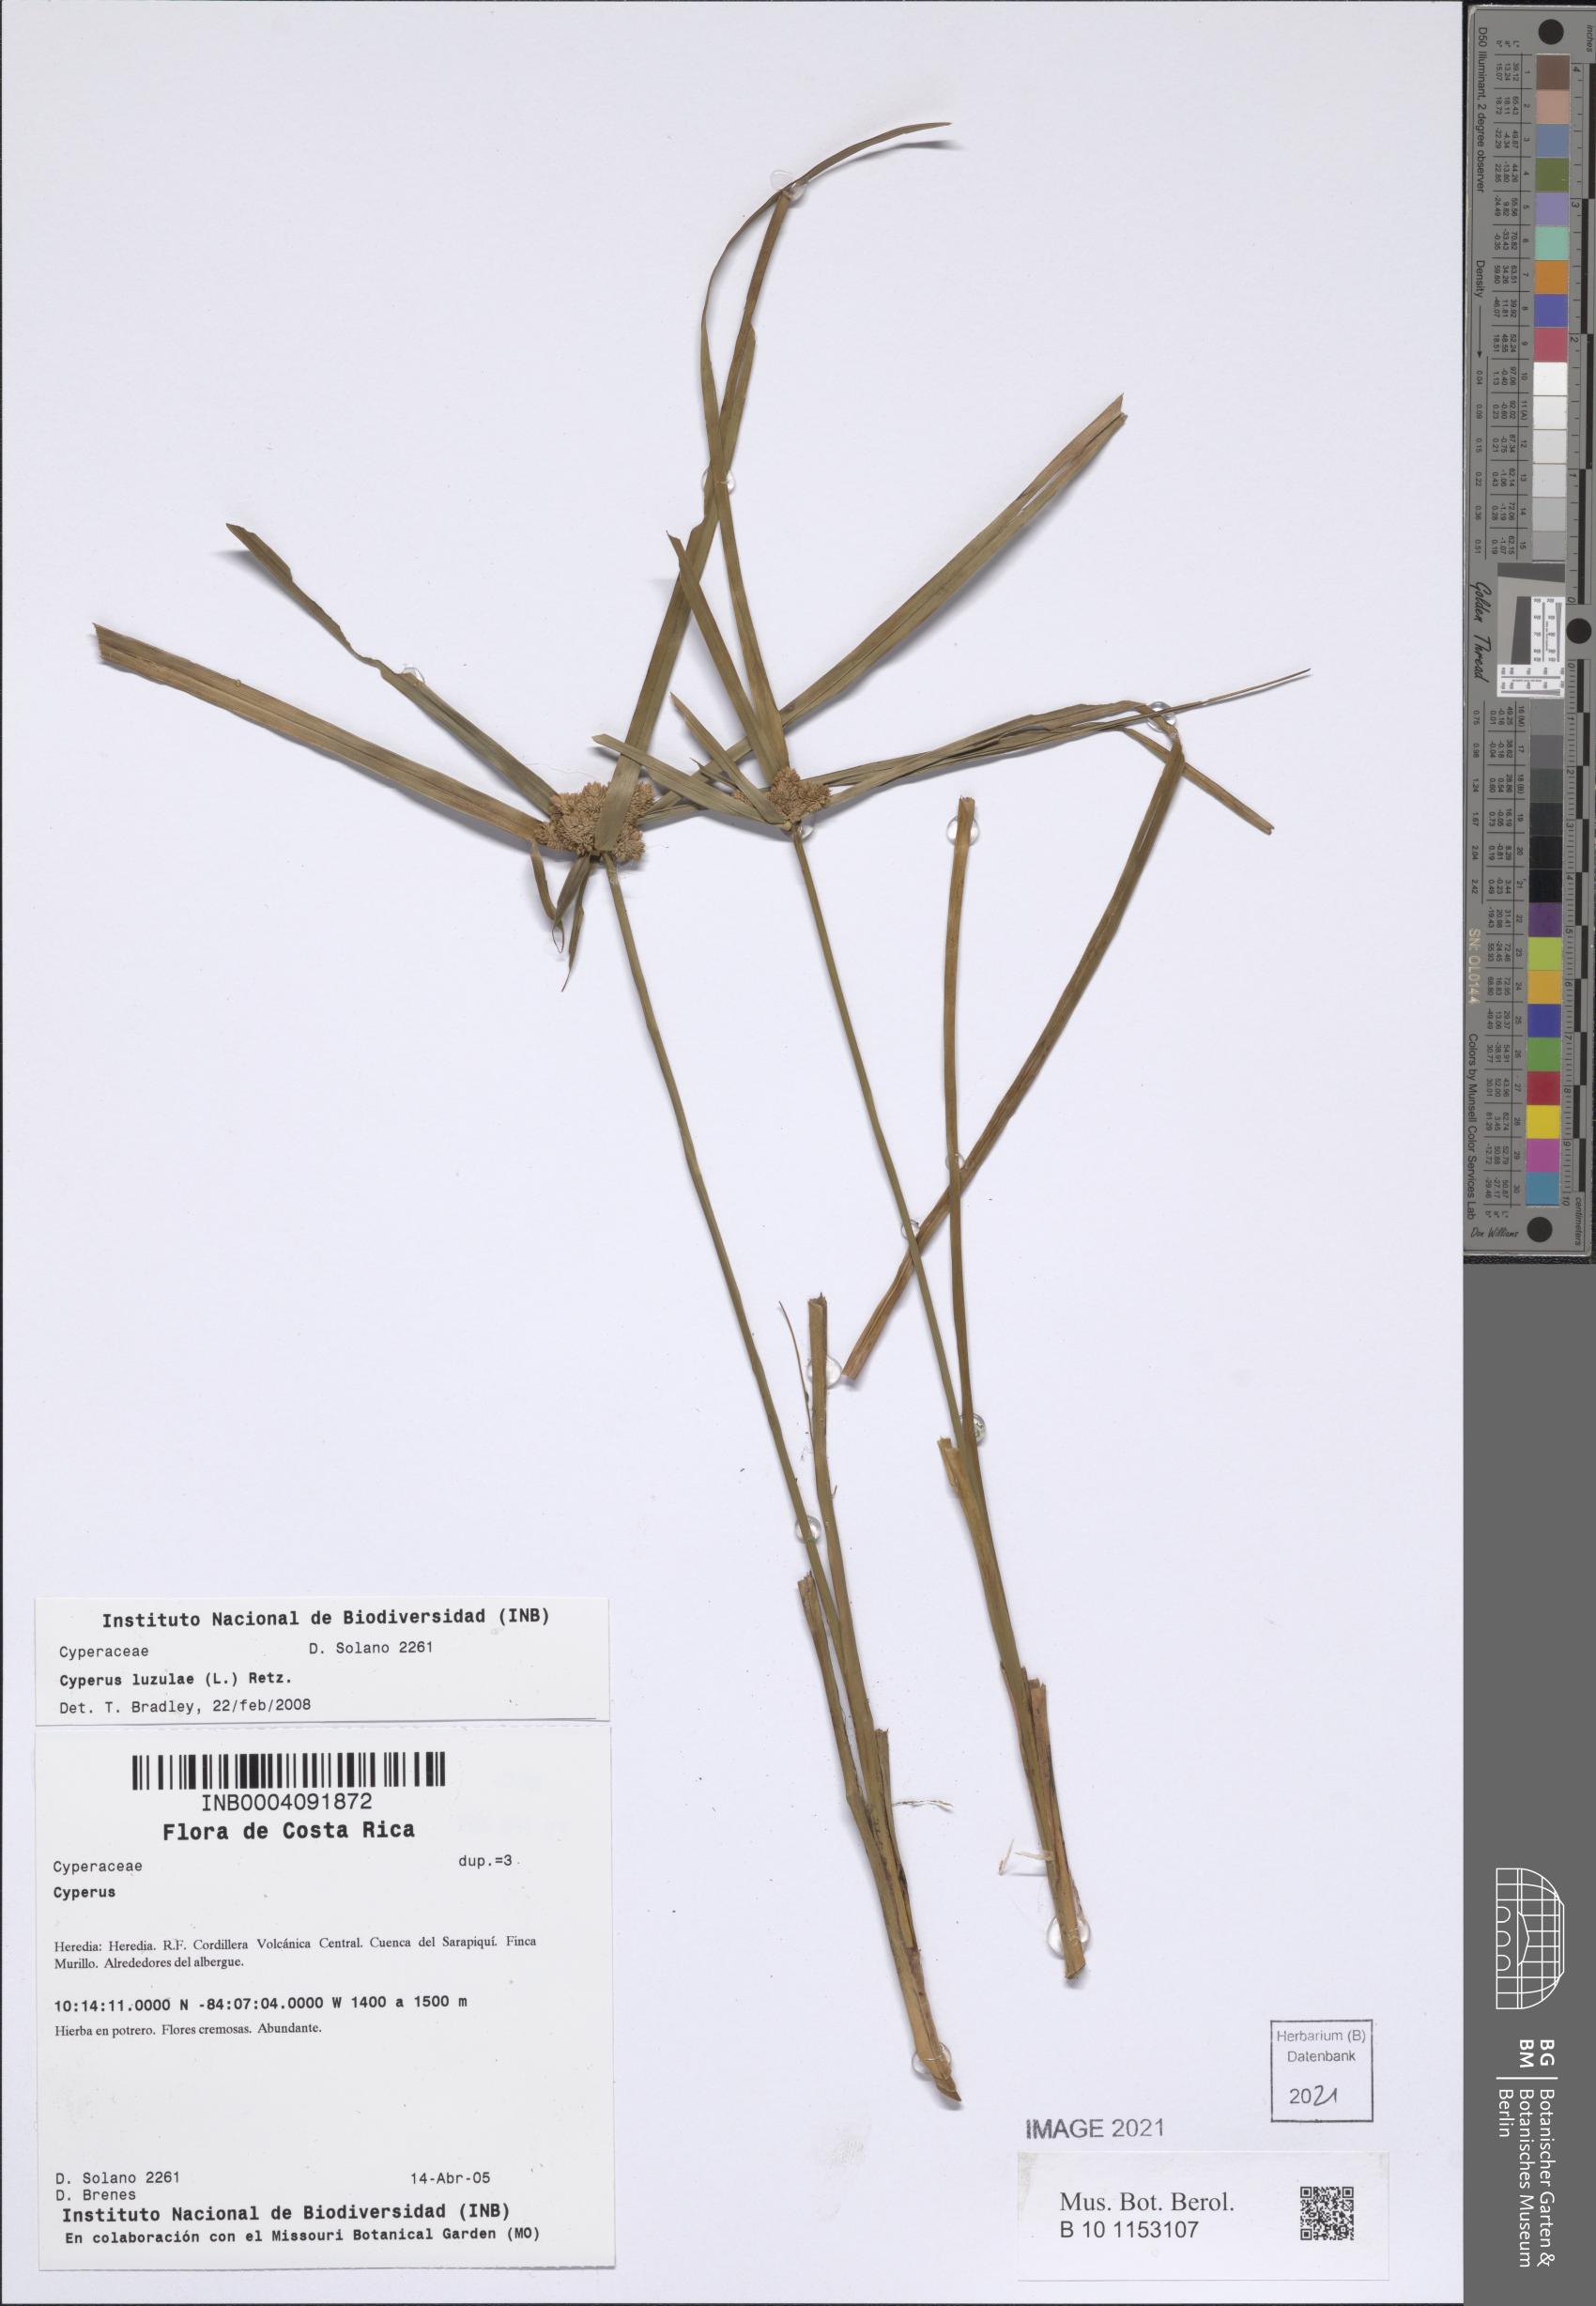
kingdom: Plantae
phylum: Tracheophyta
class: Liliopsida
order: Poales
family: Cyperaceae
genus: Cyperus
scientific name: Cyperus luzulae
